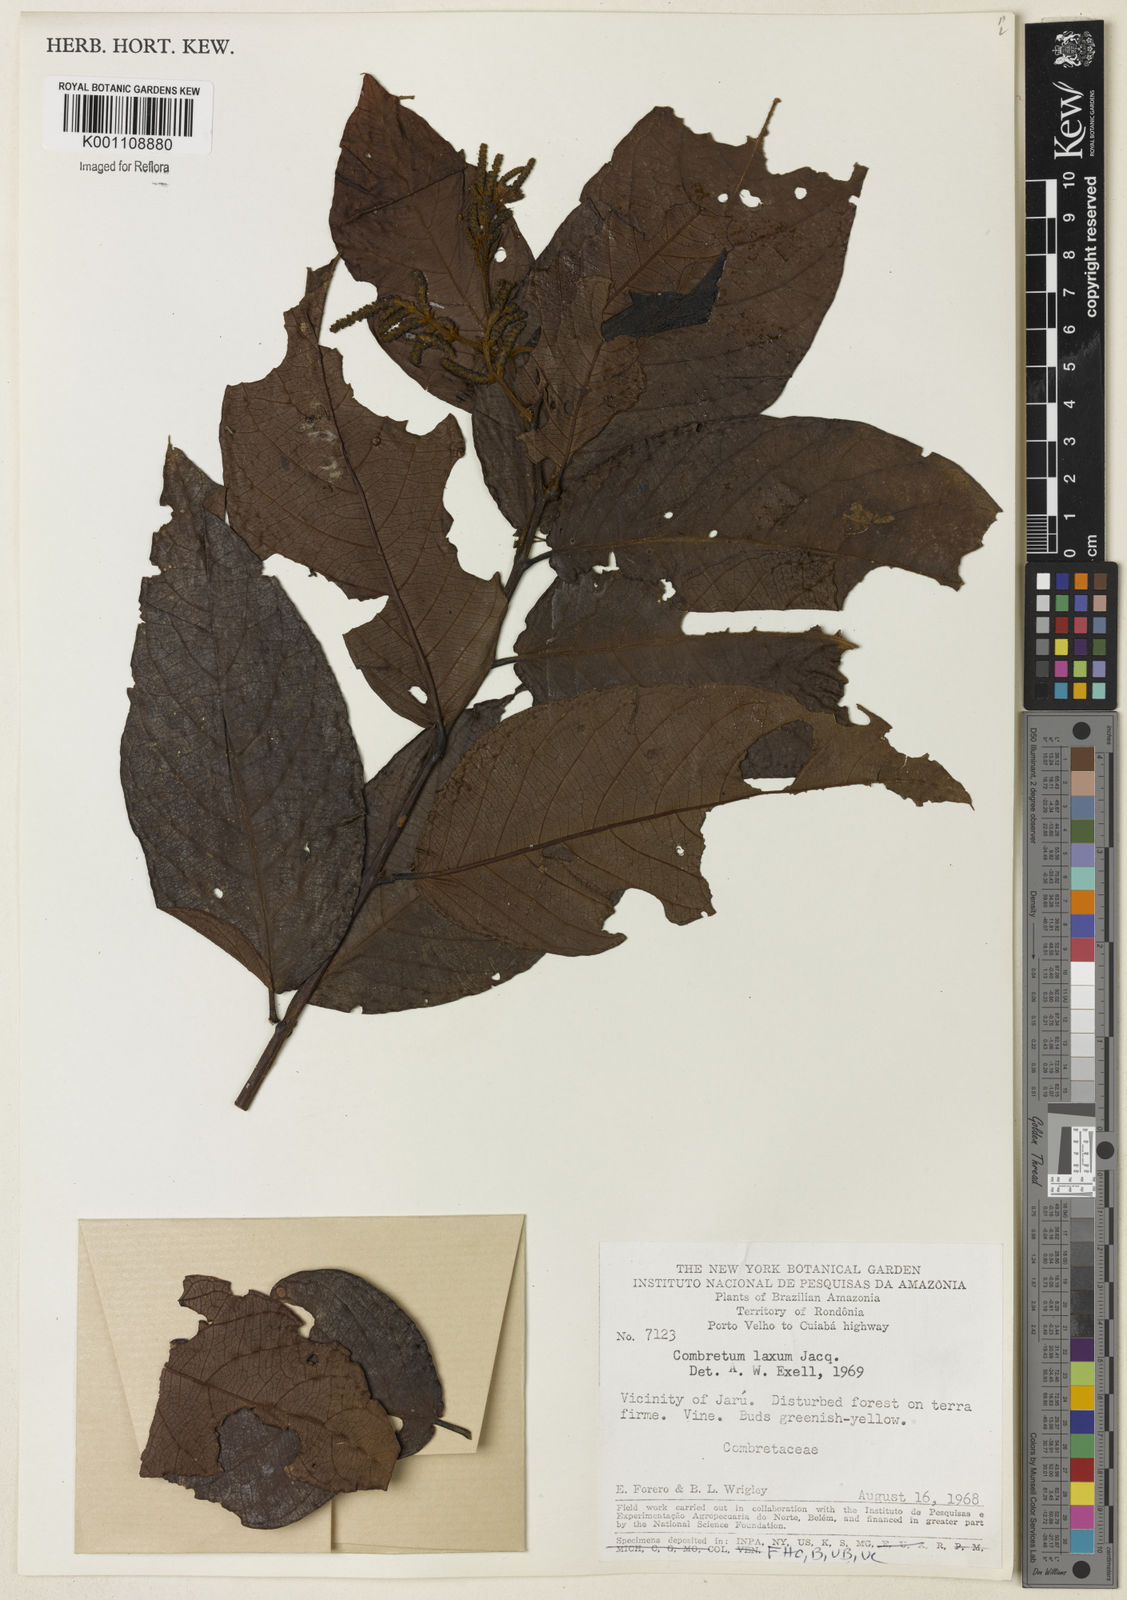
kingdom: Plantae
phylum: Tracheophyta
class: Magnoliopsida
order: Myrtales
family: Combretaceae
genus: Combretum
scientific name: Combretum laxum
